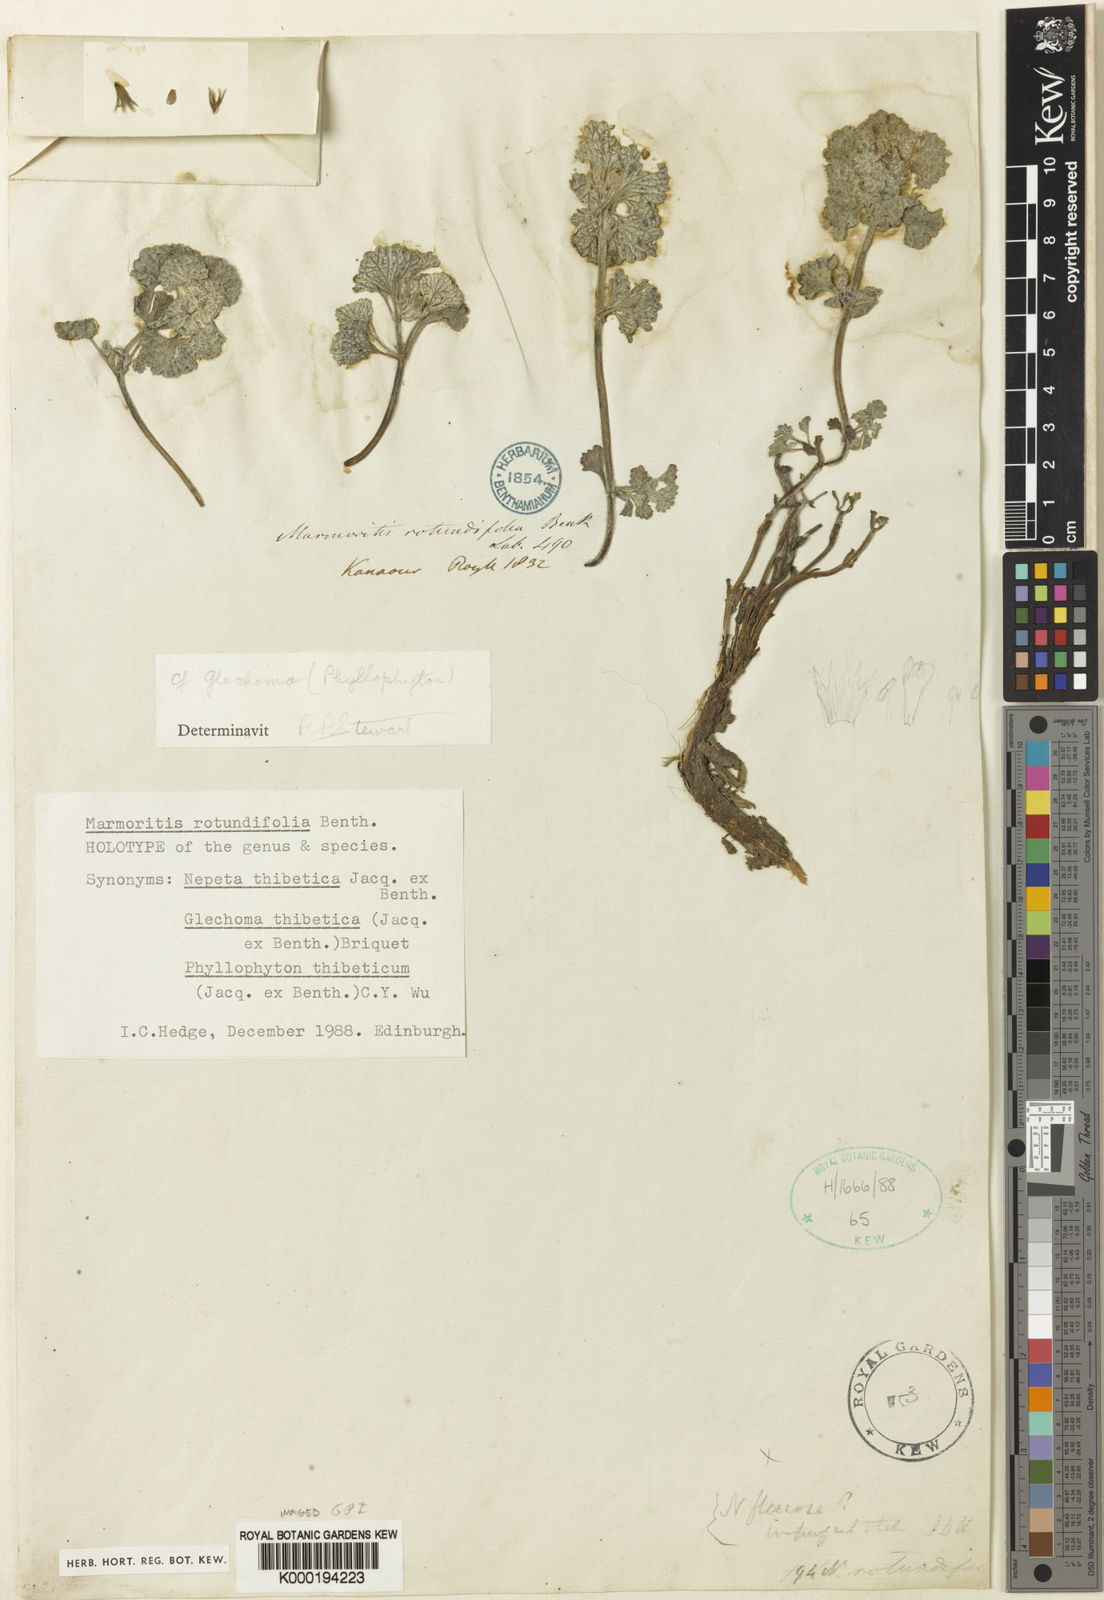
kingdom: Plantae
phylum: Tracheophyta
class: Magnoliopsida
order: Lamiales
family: Lamiaceae
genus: Nepeta
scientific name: Nepeta rotundifolia
